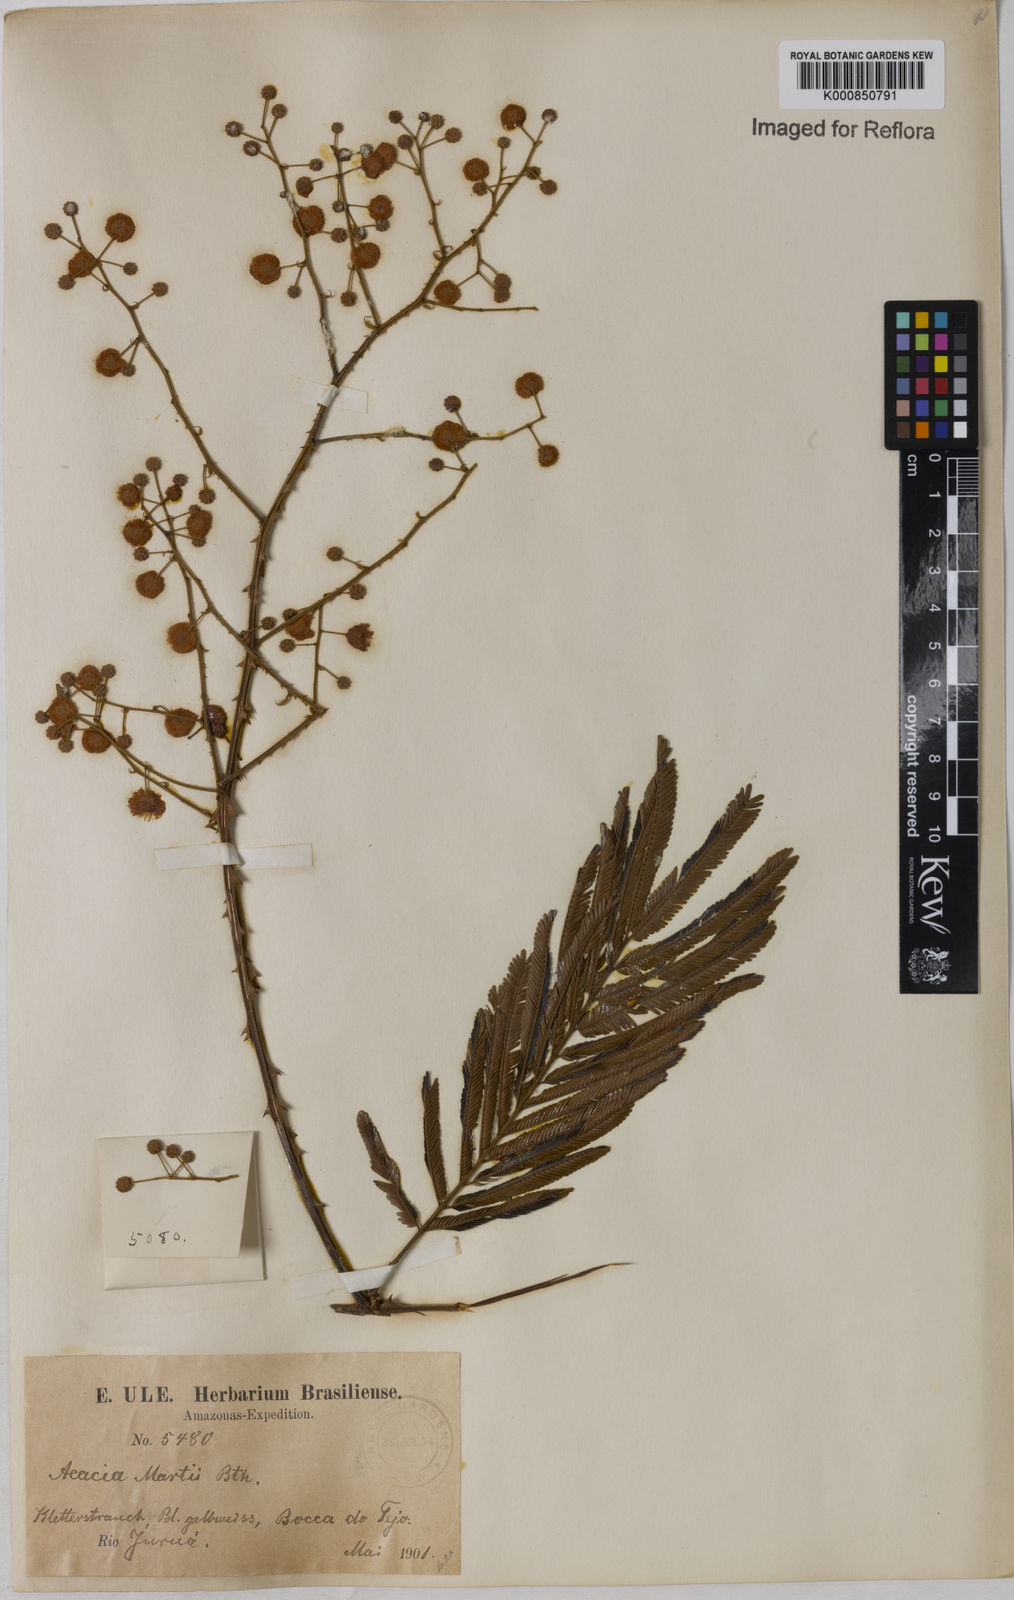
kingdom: Plantae
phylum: Tracheophyta
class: Magnoliopsida
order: Fabales
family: Fabaceae
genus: Senegalia
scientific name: Senegalia martii
